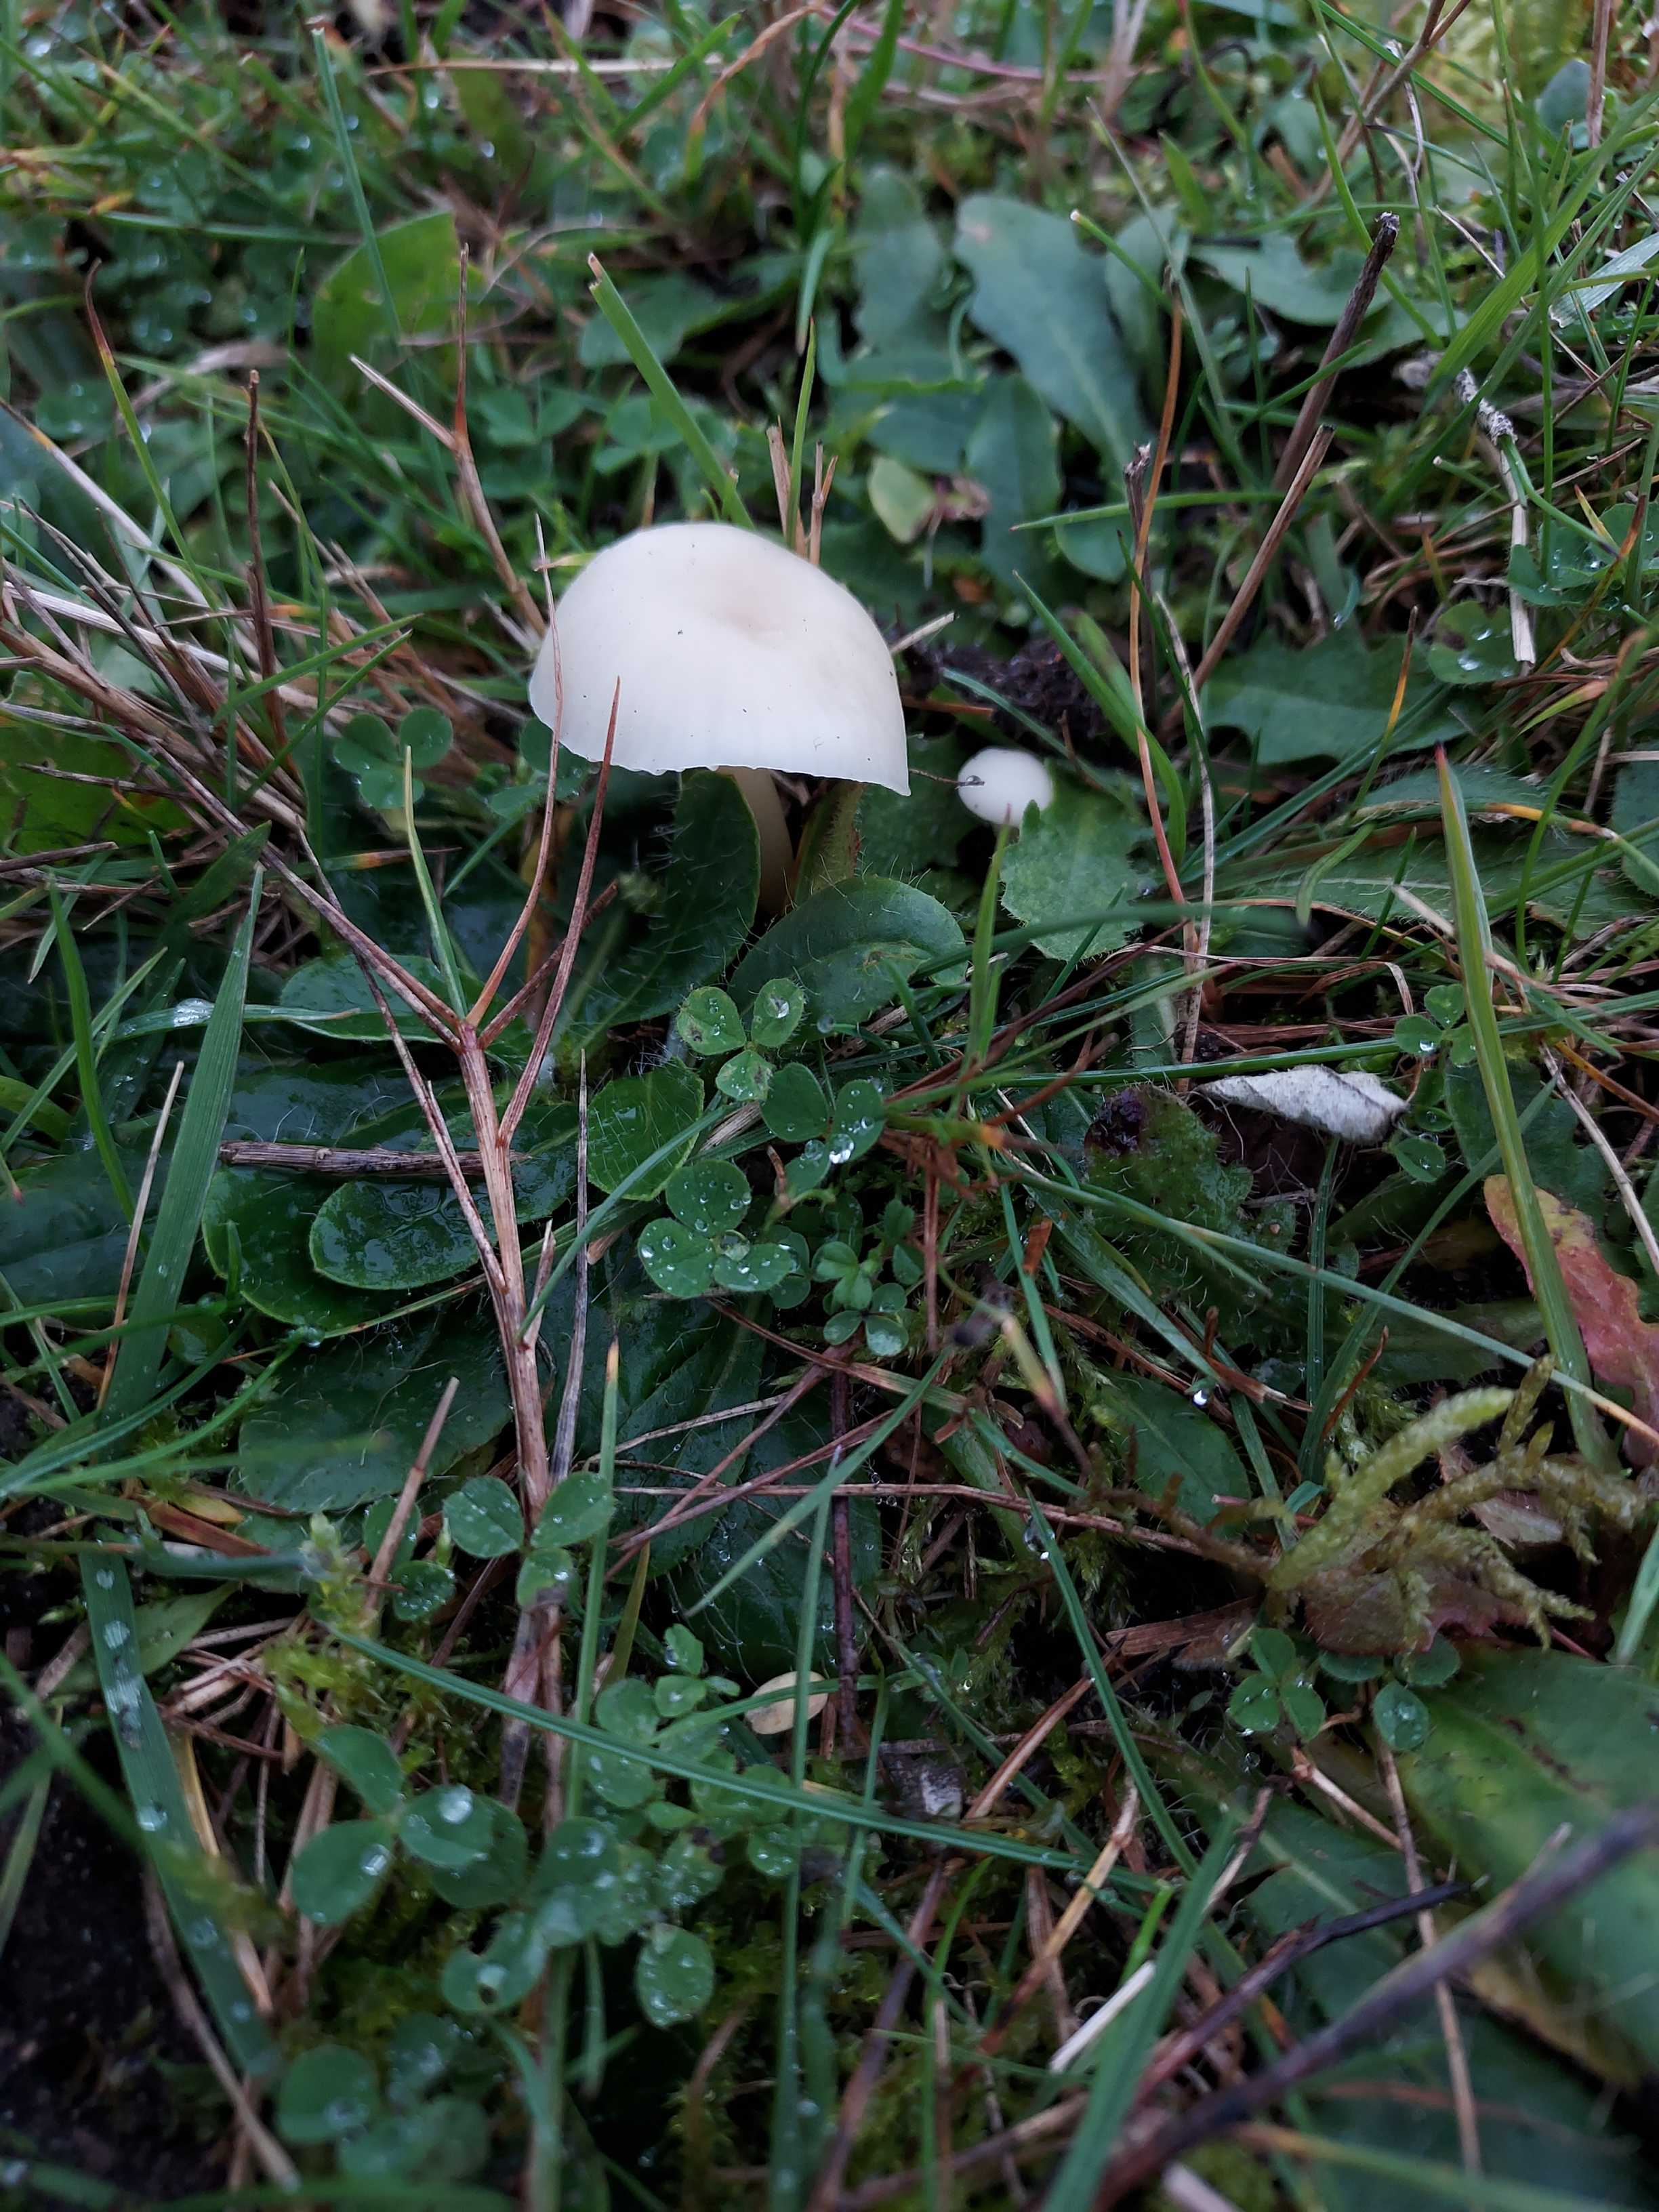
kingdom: Fungi
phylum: Basidiomycota
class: Agaricomycetes
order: Agaricales
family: Hygrophoraceae
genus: Cuphophyllus
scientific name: Cuphophyllus virgineus
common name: snehvid vokshat
